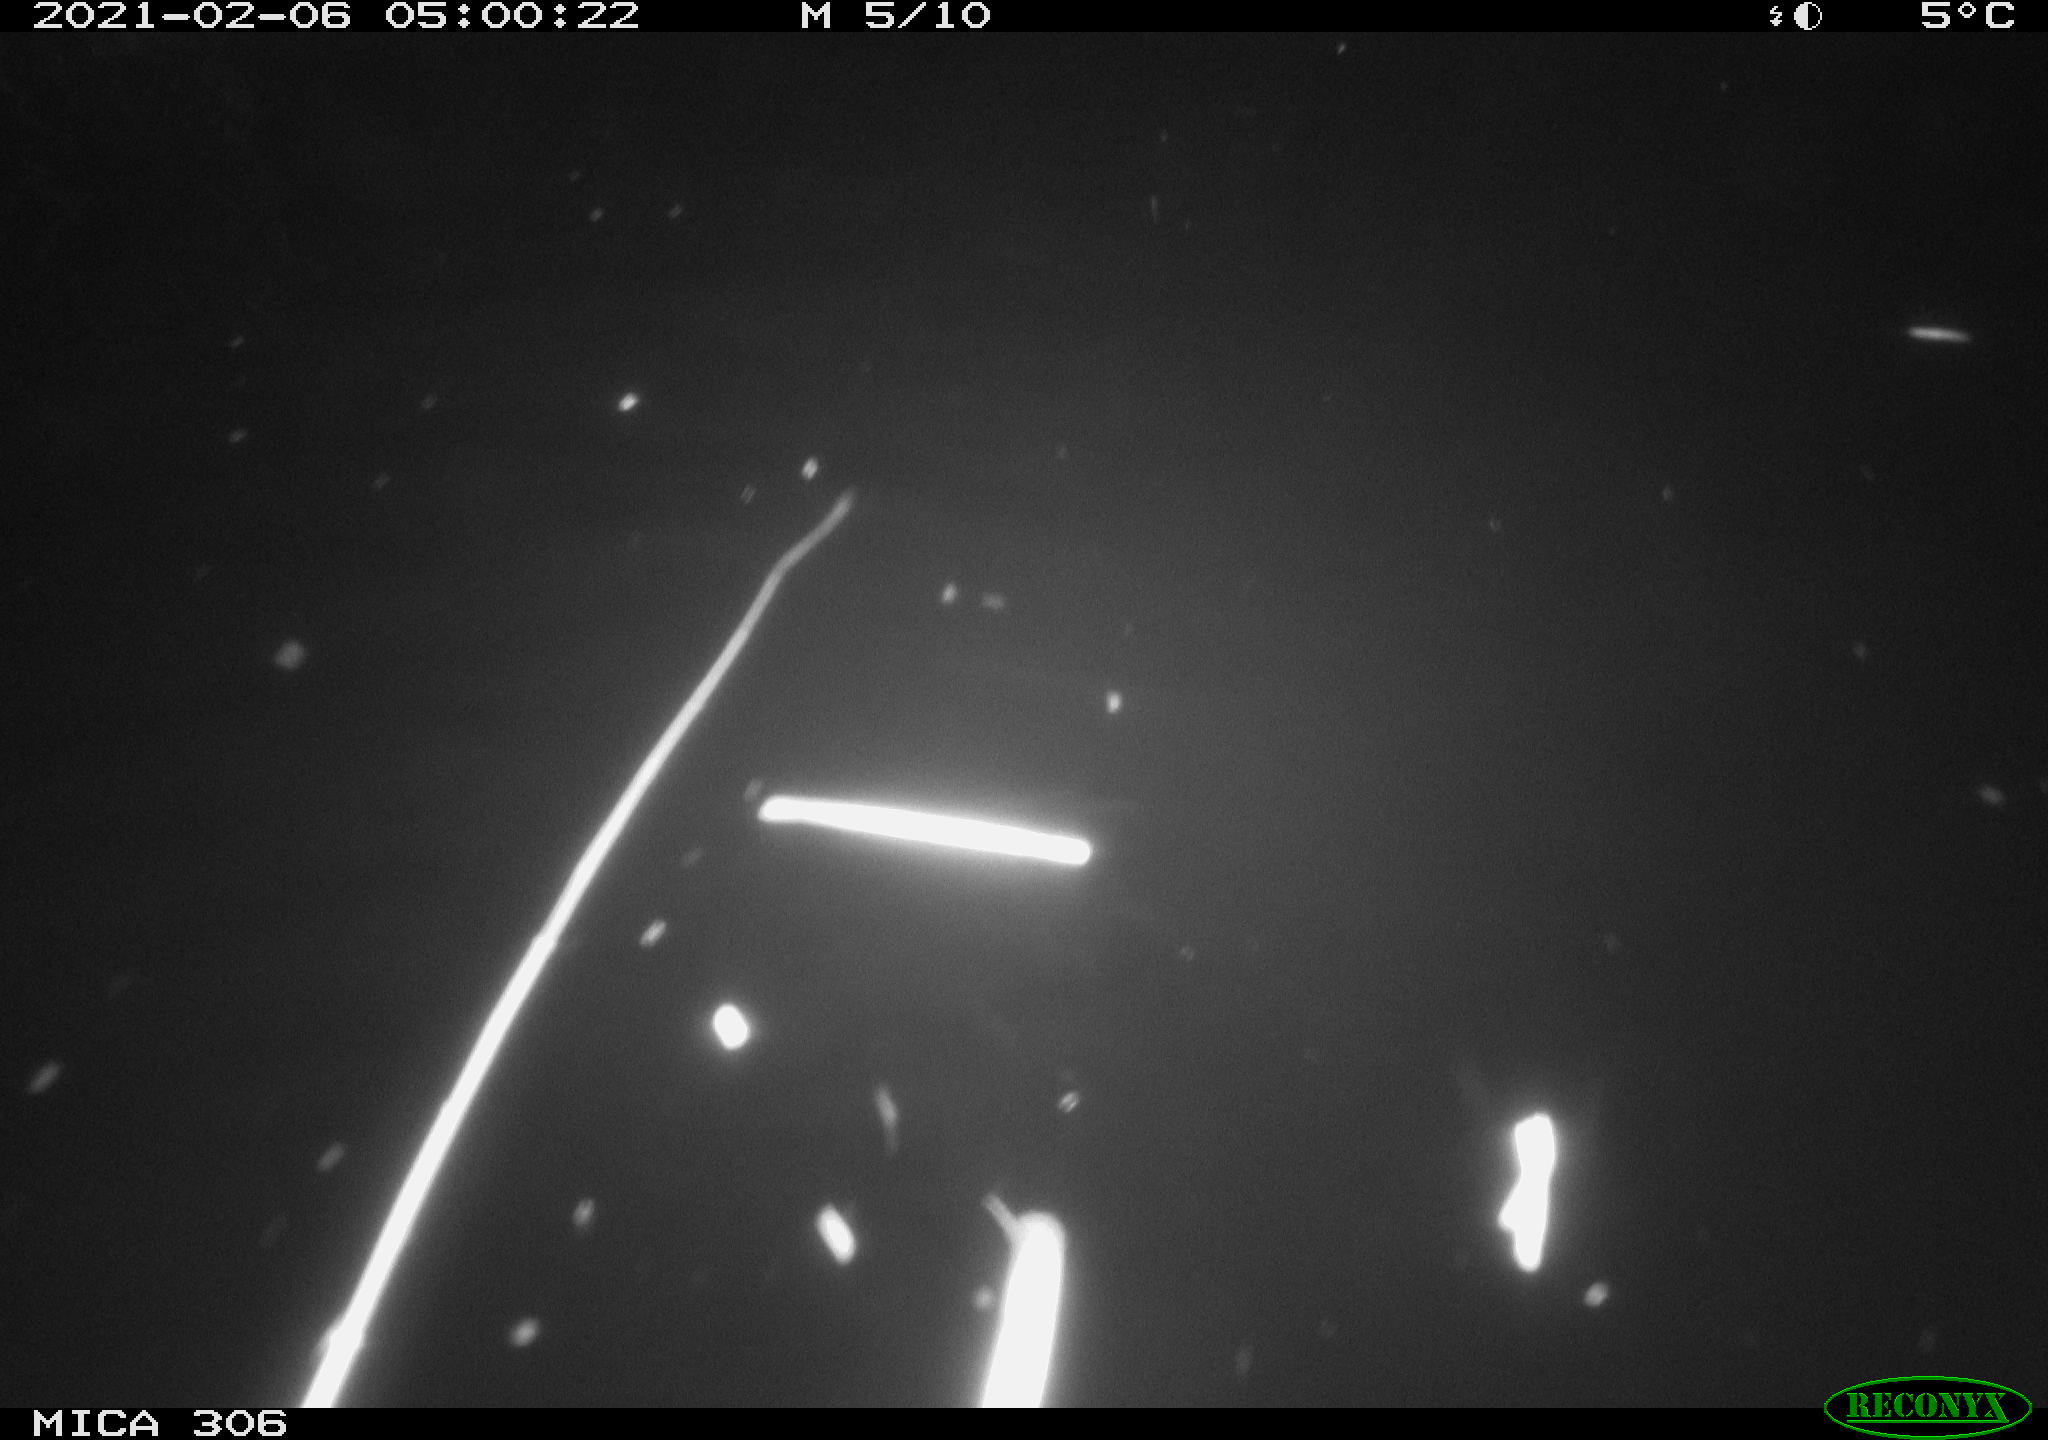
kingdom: Animalia
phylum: Chordata
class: Mammalia
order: Rodentia
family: Cricetidae
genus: Ondatra
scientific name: Ondatra zibethicus
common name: Muskrat
